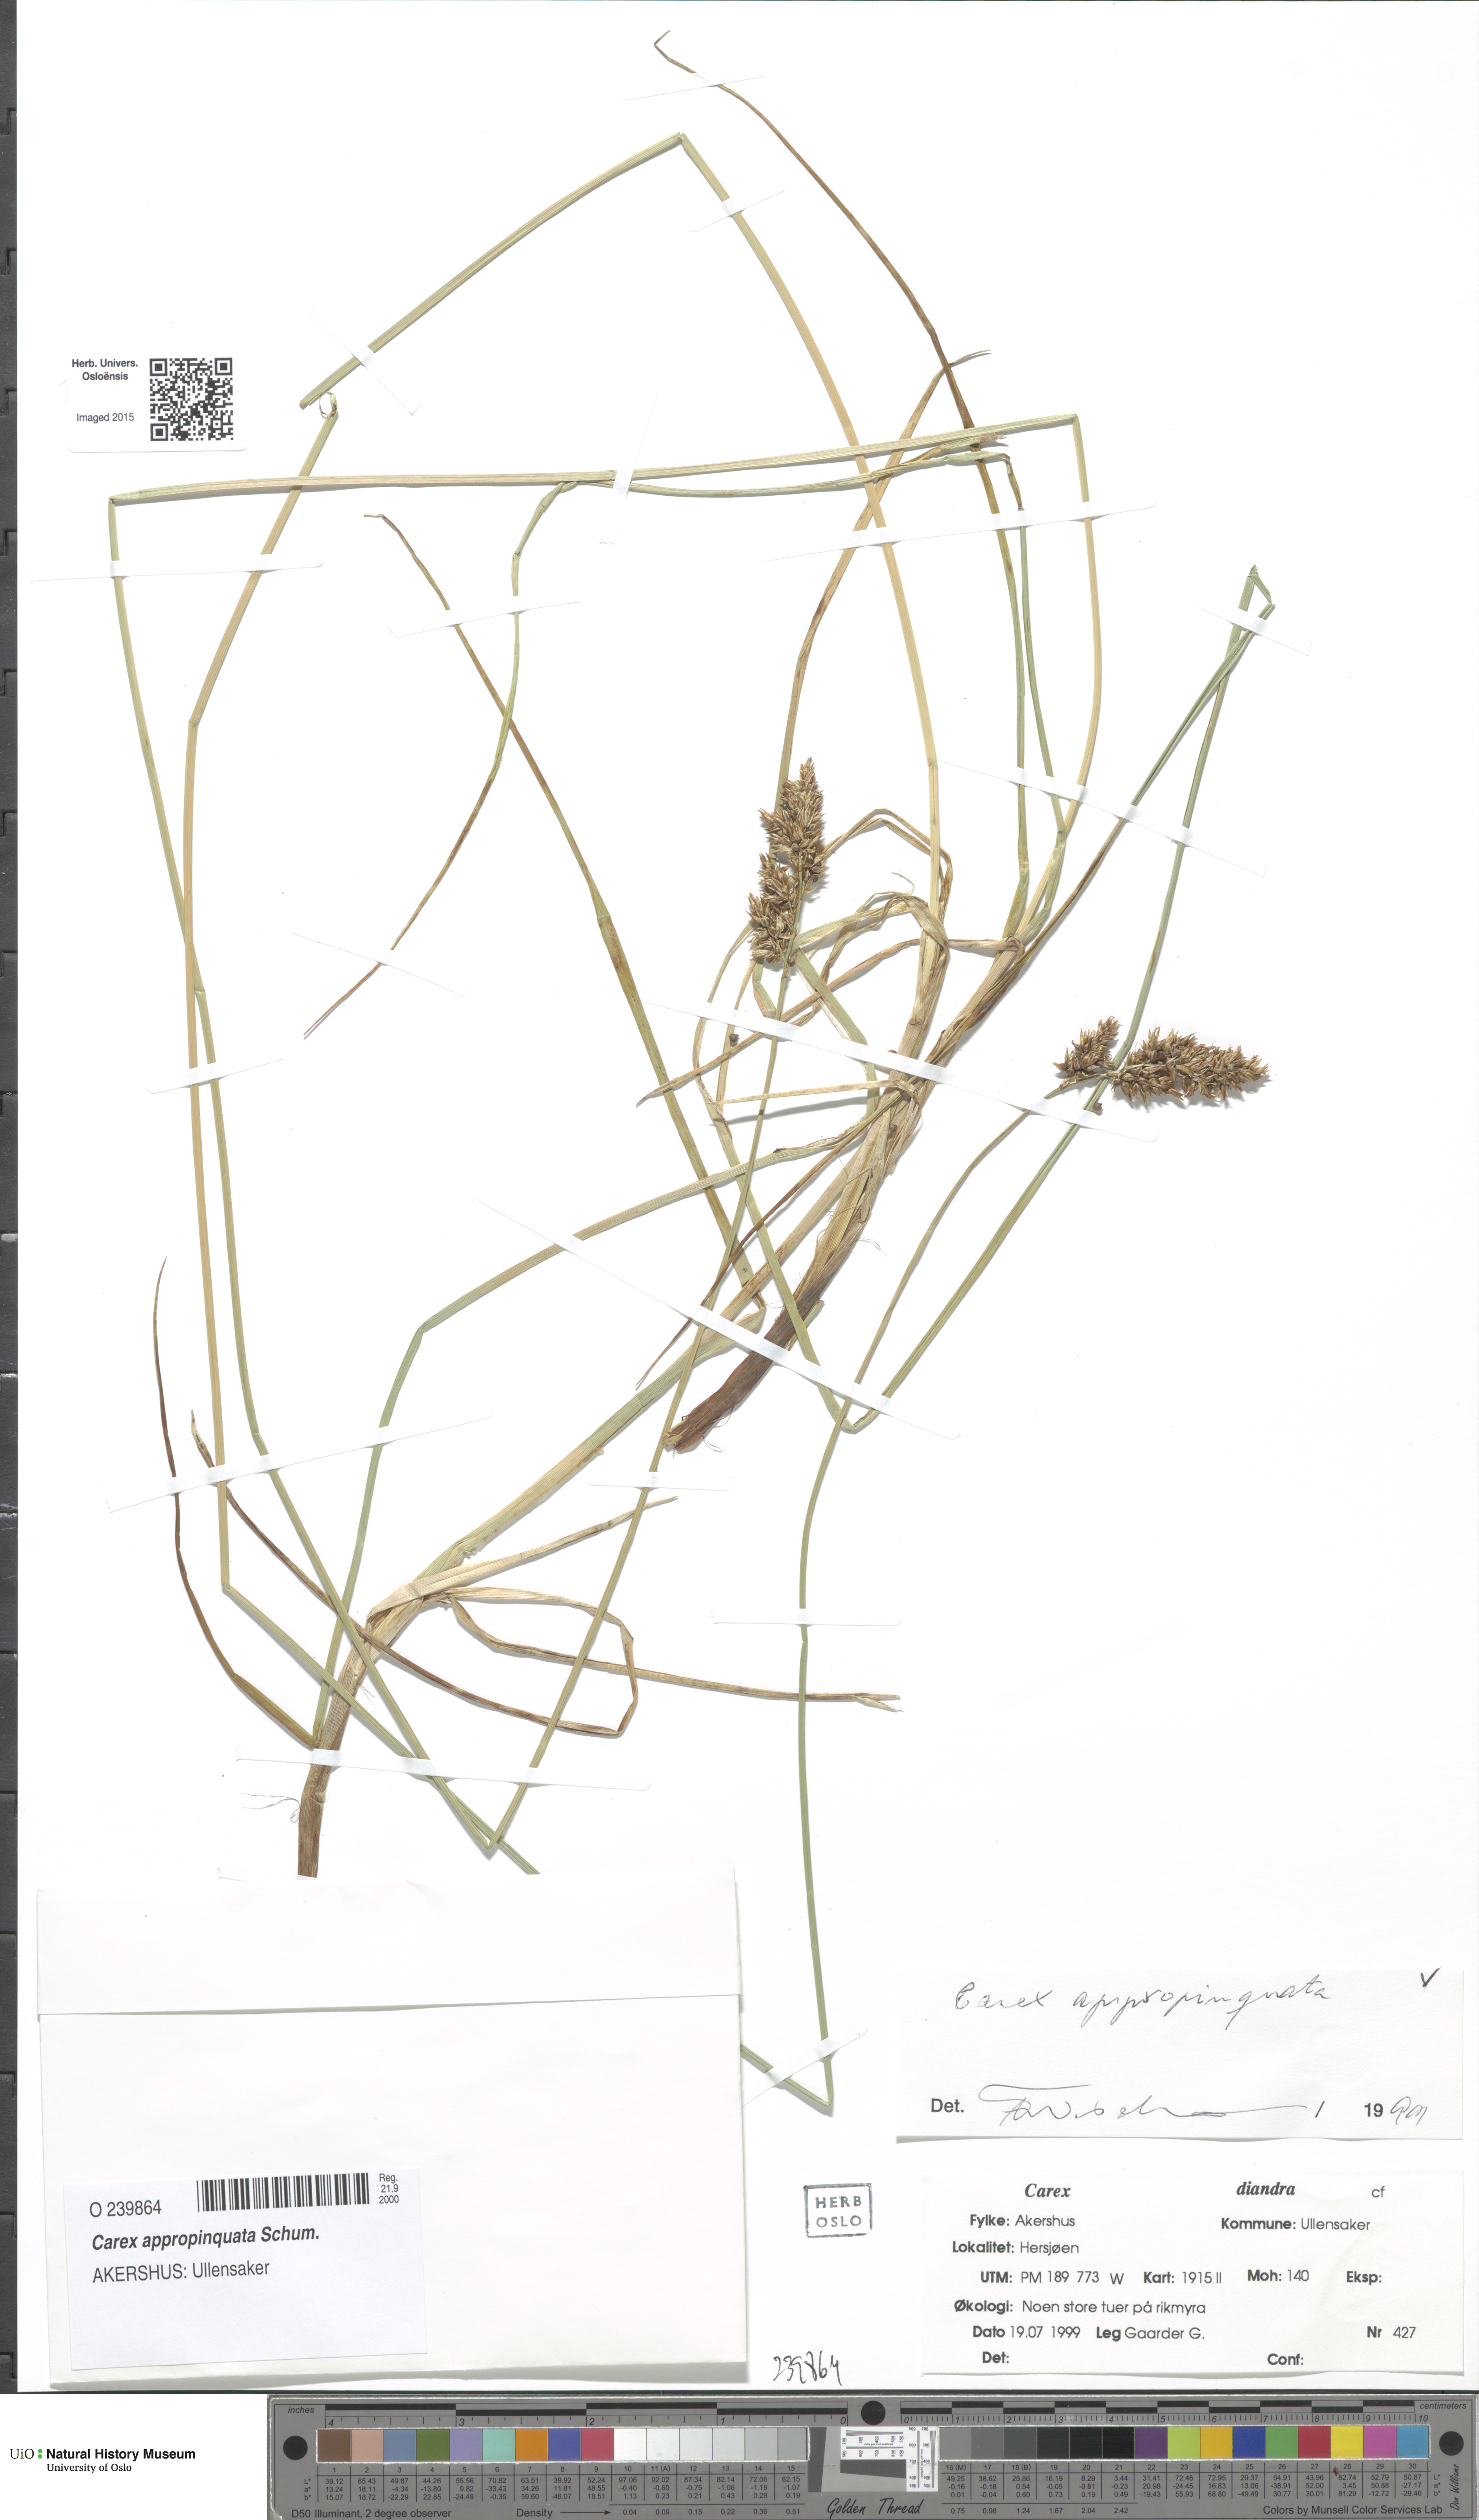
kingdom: Plantae
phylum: Tracheophyta
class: Liliopsida
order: Poales
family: Cyperaceae
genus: Carex
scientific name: Carex appropinquata
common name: Fibrous tussock-sedge
